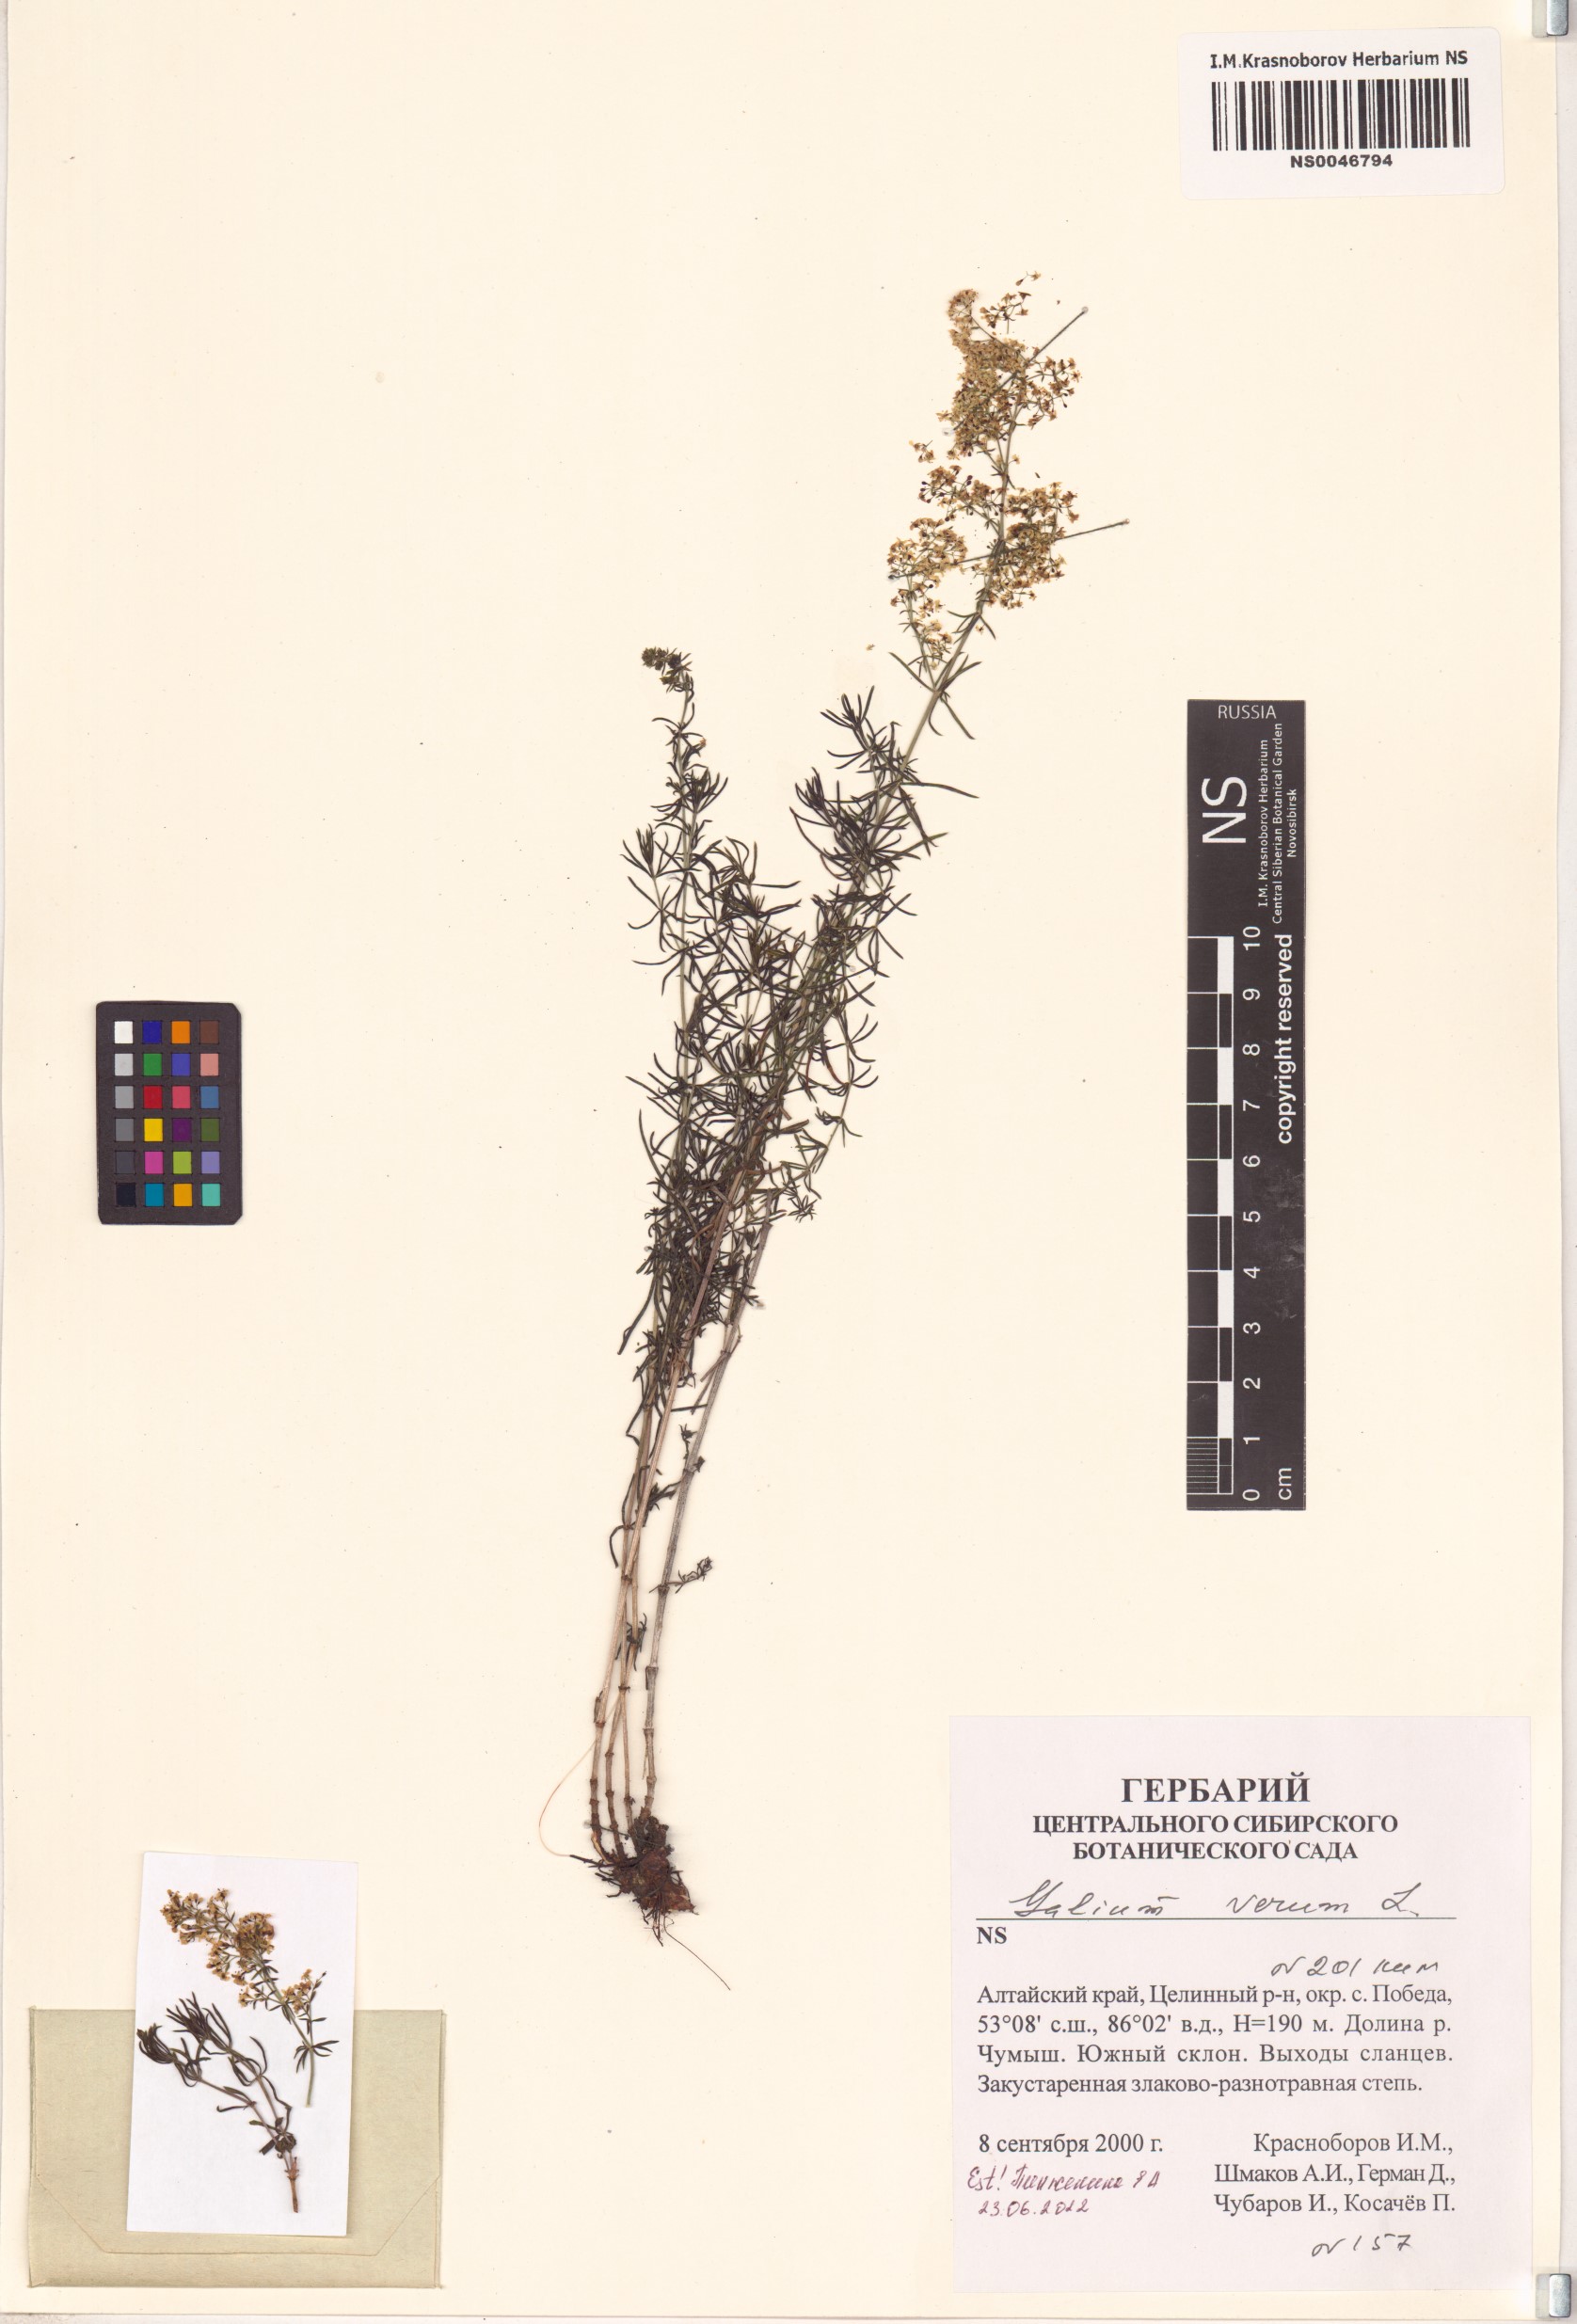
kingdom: Plantae
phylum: Tracheophyta
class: Magnoliopsida
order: Gentianales
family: Rubiaceae
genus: Galium
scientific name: Galium verum
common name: Lady's bedstraw
